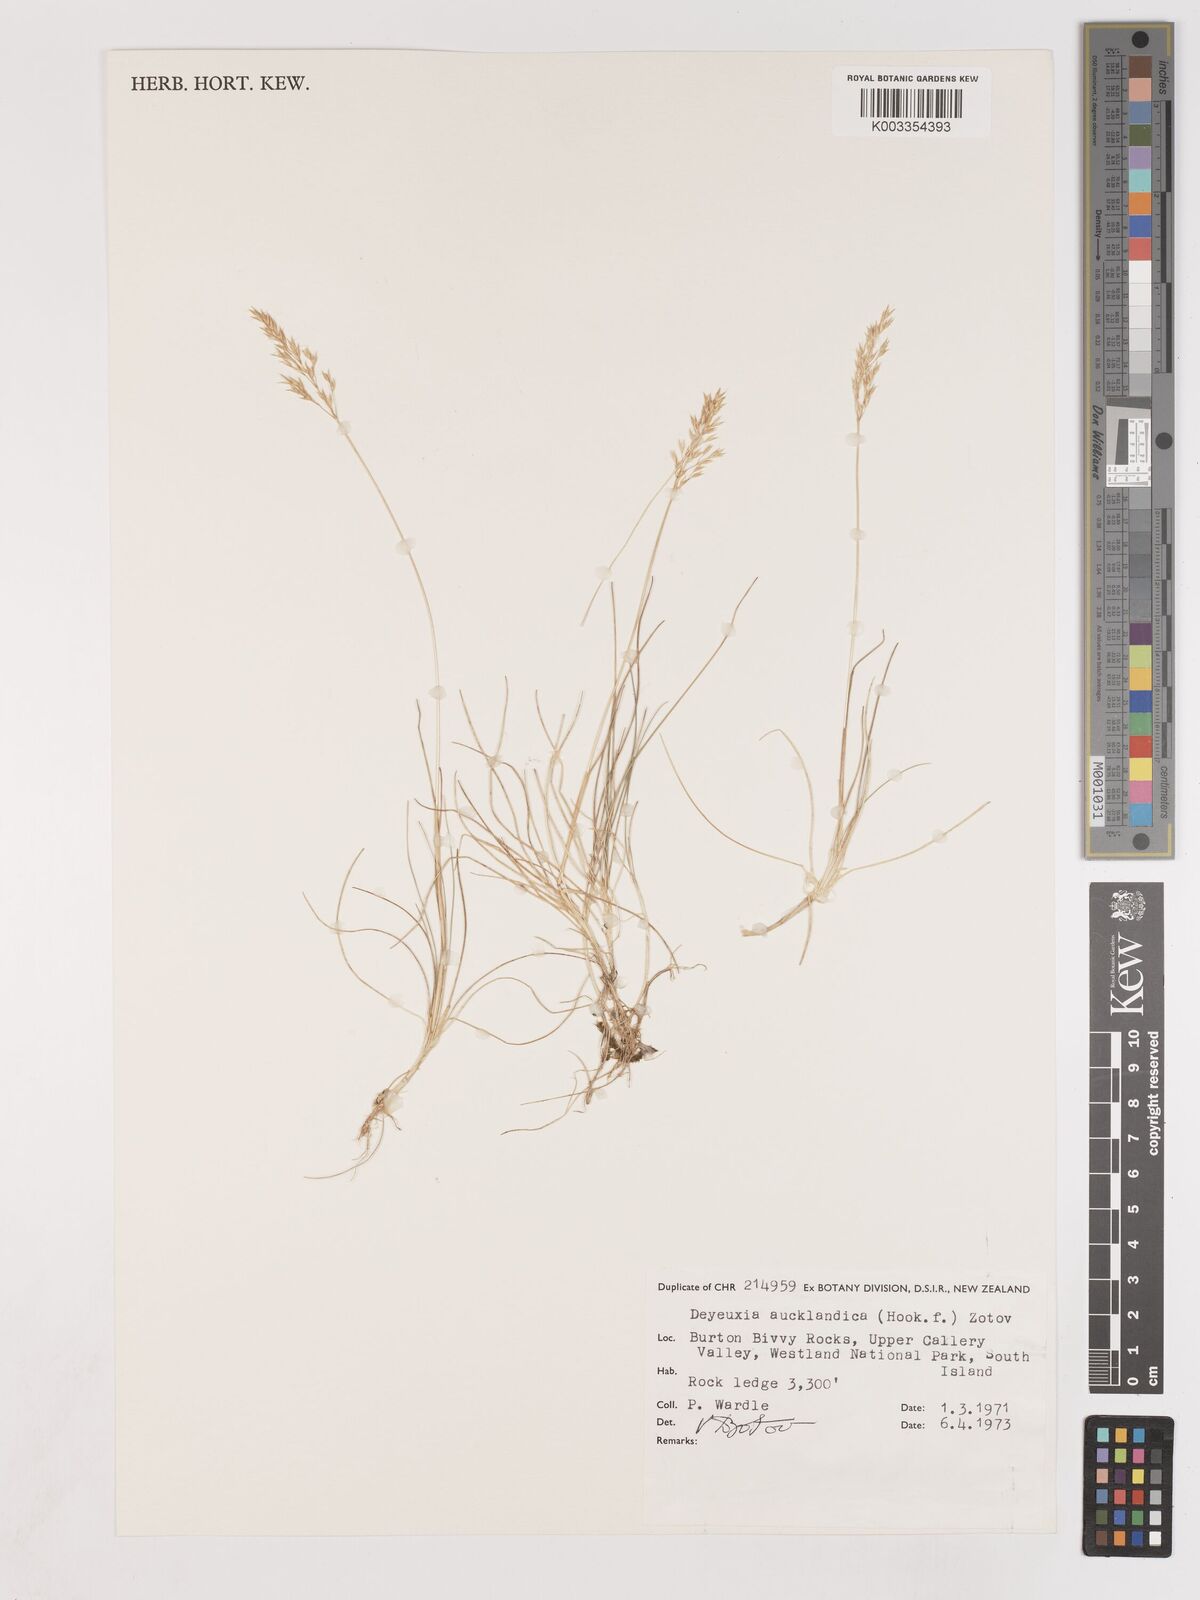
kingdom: Plantae
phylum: Tracheophyta
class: Liliopsida
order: Poales
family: Poaceae
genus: Agrostis
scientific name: Agrostis aucklandica
